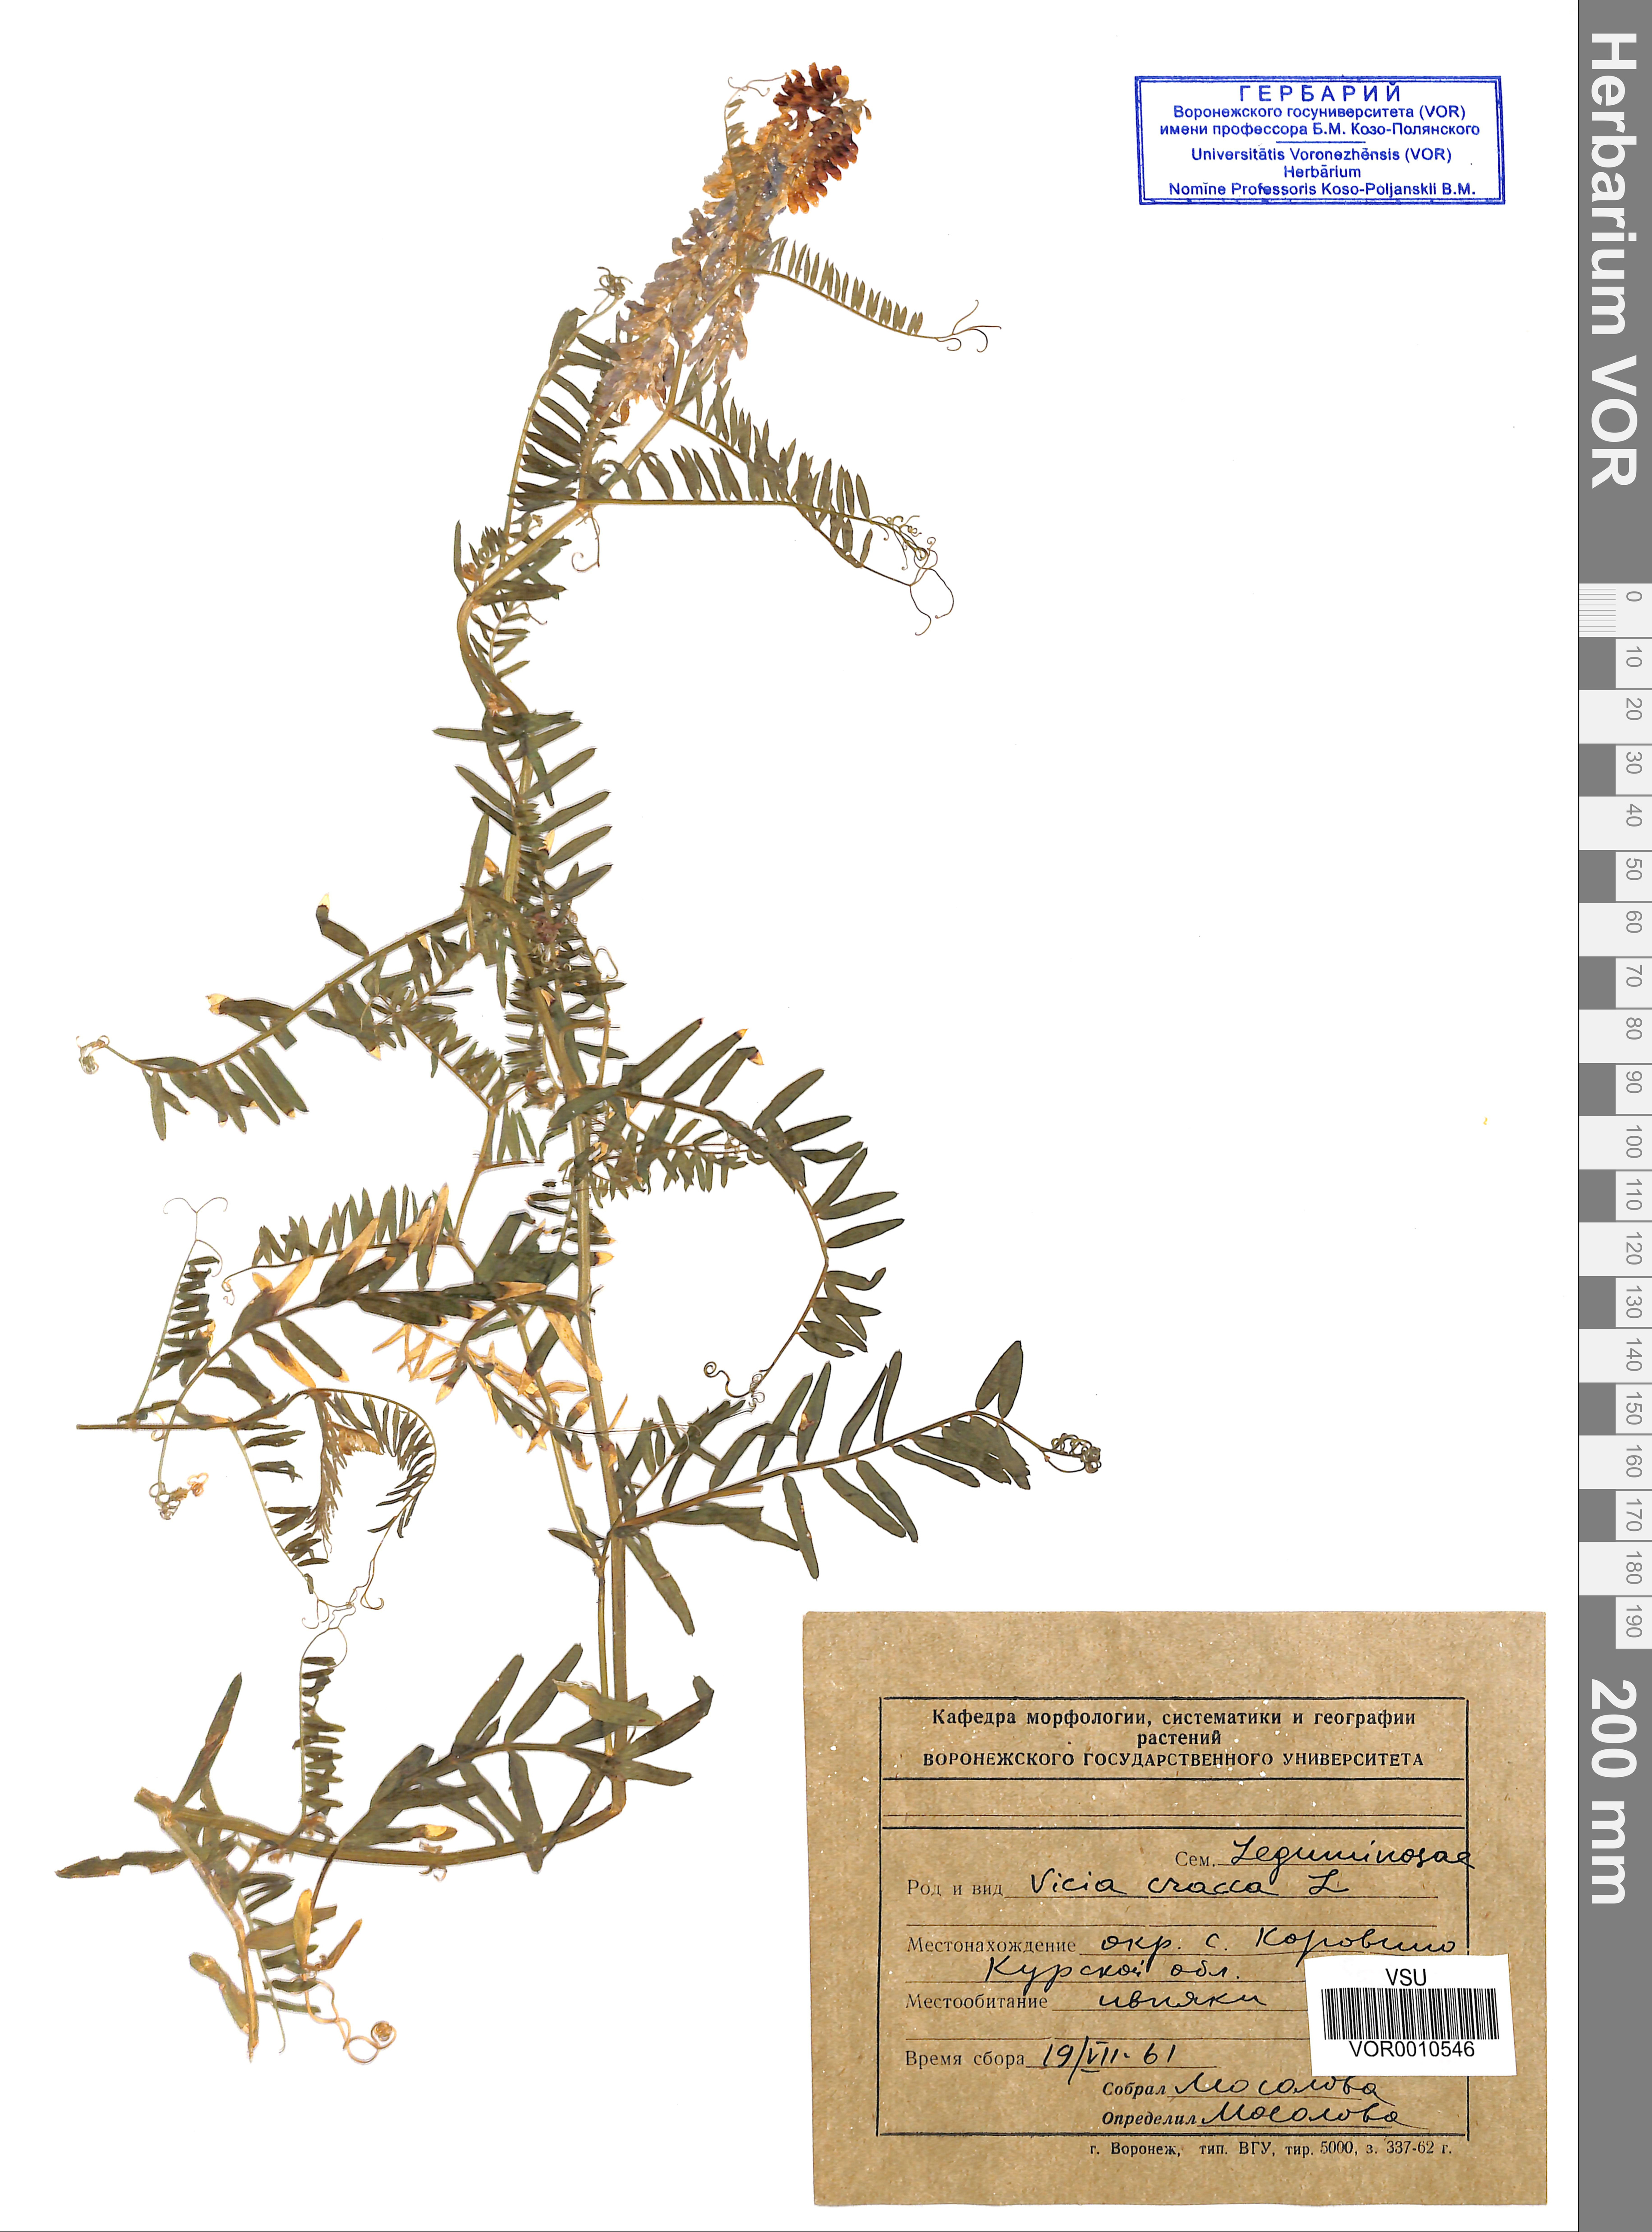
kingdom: Plantae
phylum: Tracheophyta
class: Magnoliopsida
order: Fabales
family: Fabaceae
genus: Vicia
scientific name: Vicia cracca
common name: Bird vetch
